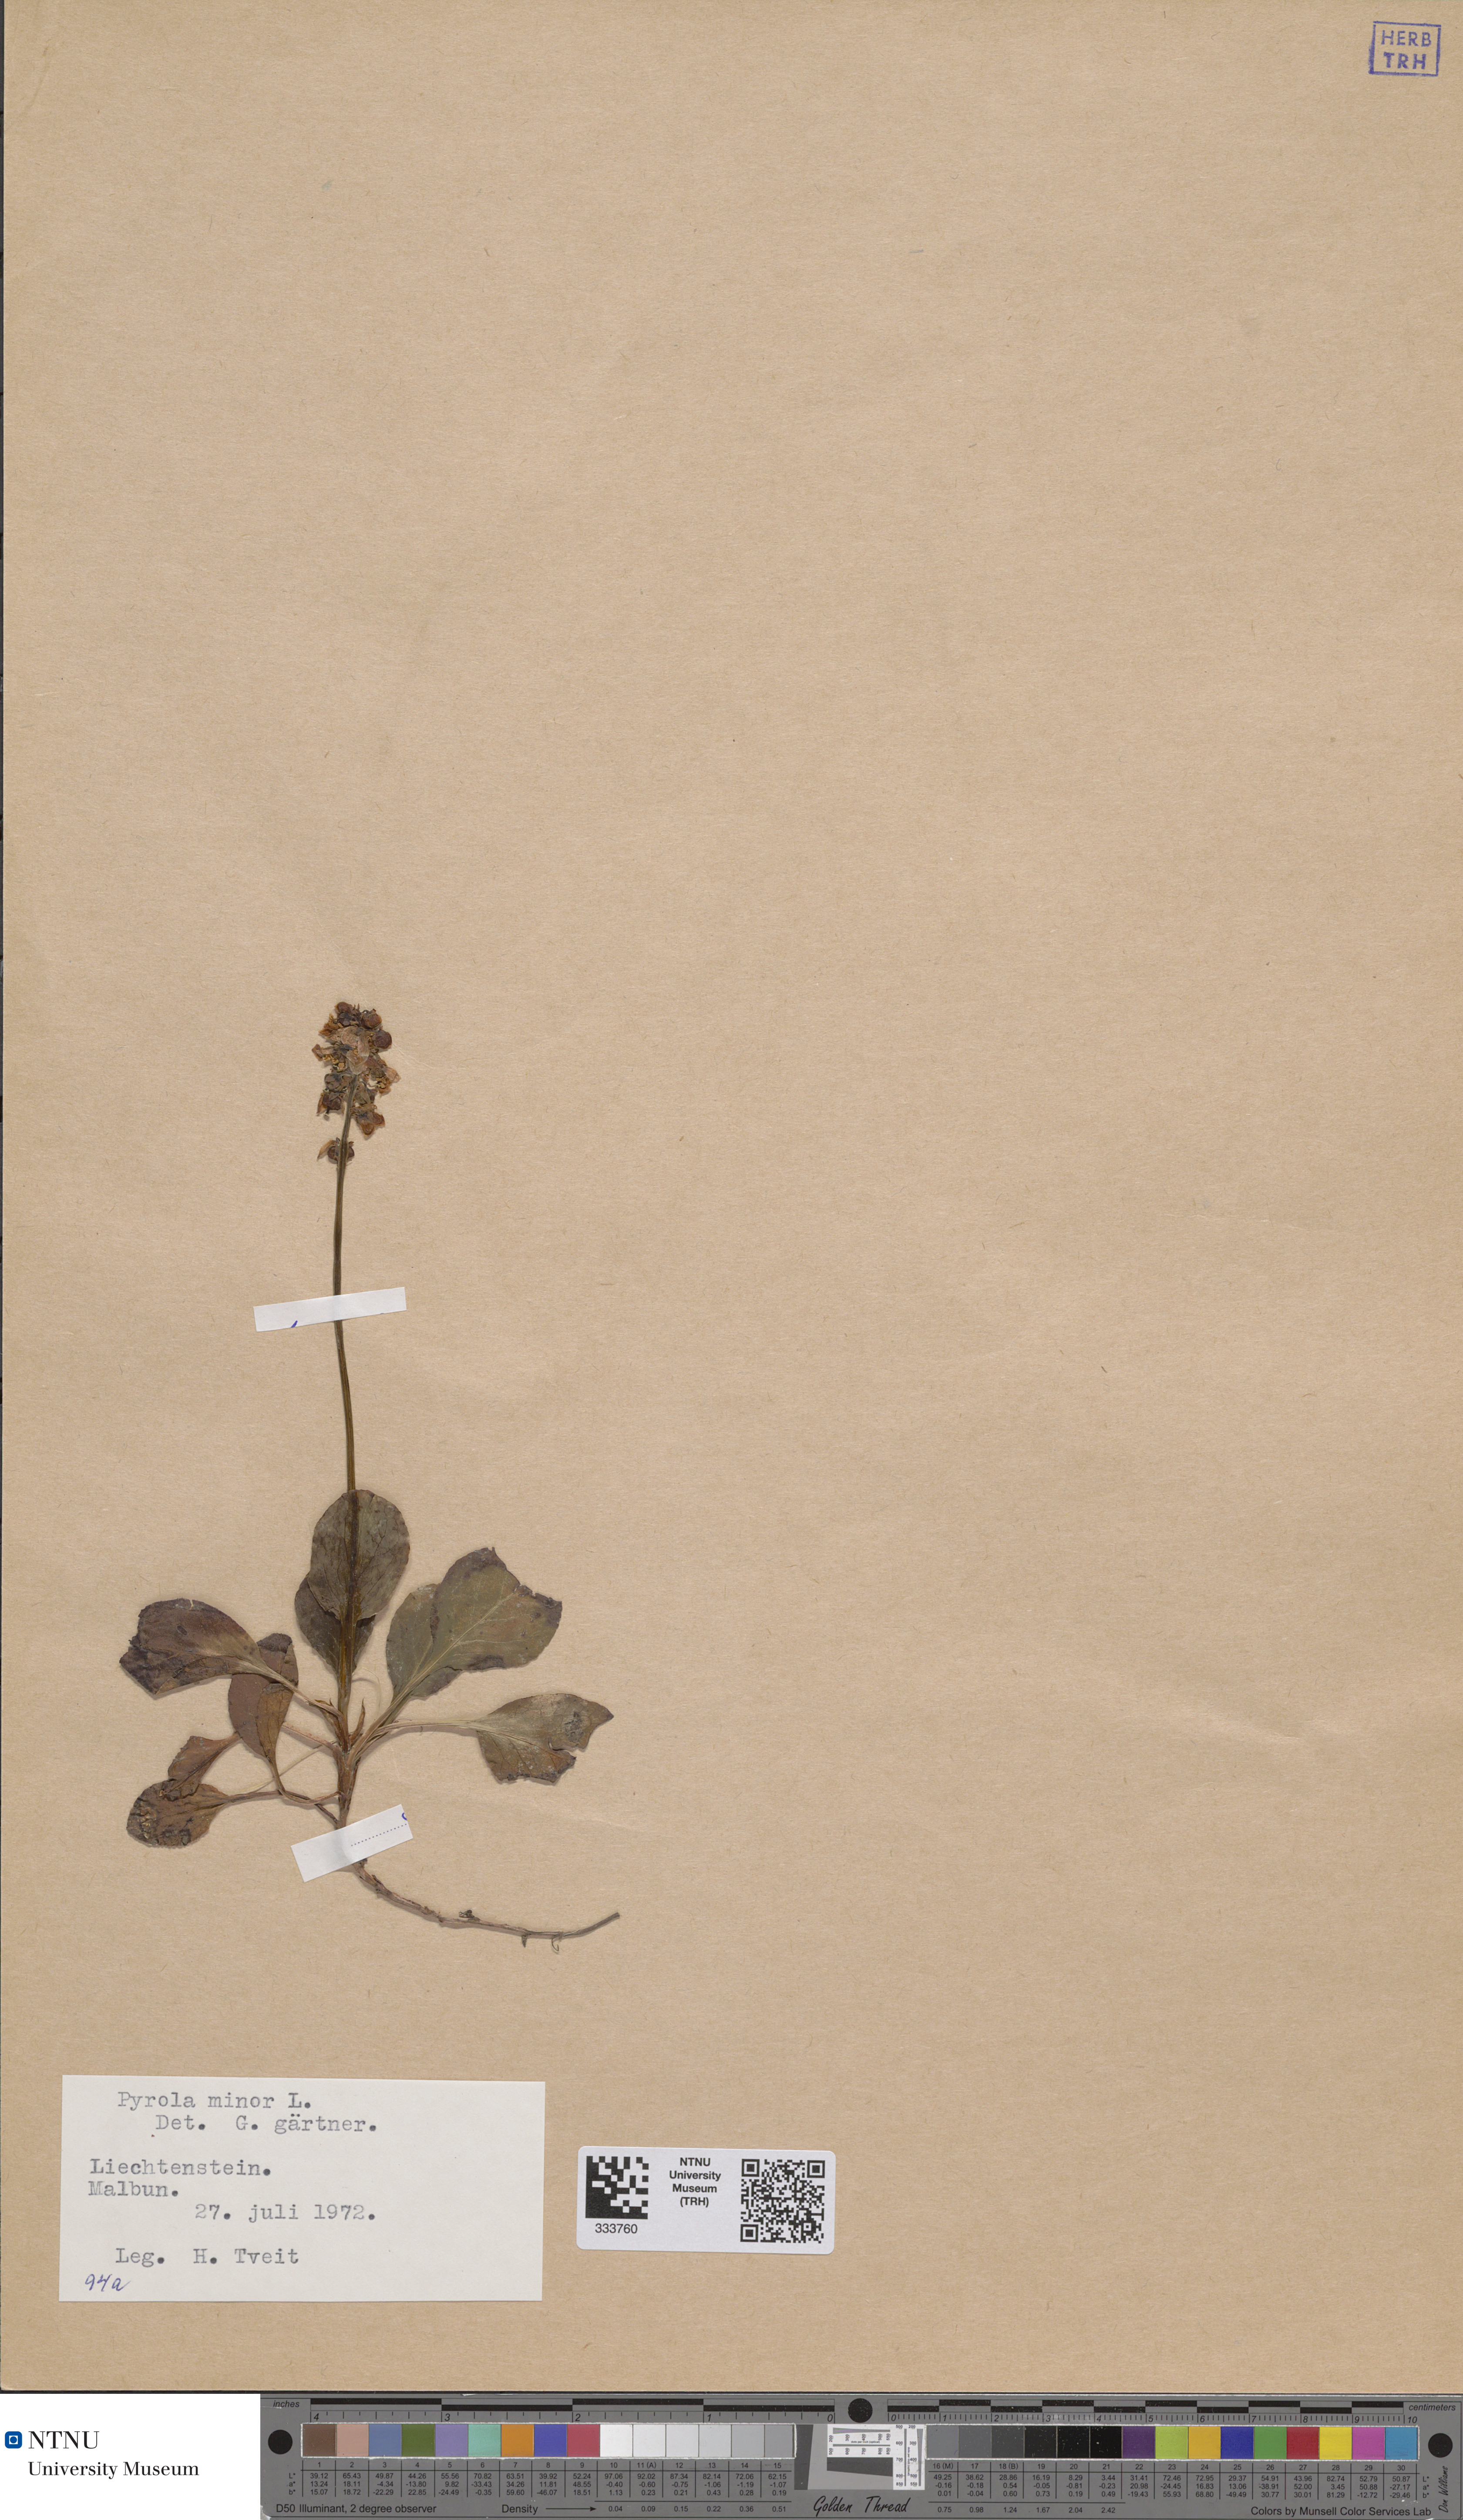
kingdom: Plantae
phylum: Tracheophyta
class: Magnoliopsida
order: Ericales
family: Ericaceae
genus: Pyrola
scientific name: Pyrola minor
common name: Common wintergreen
